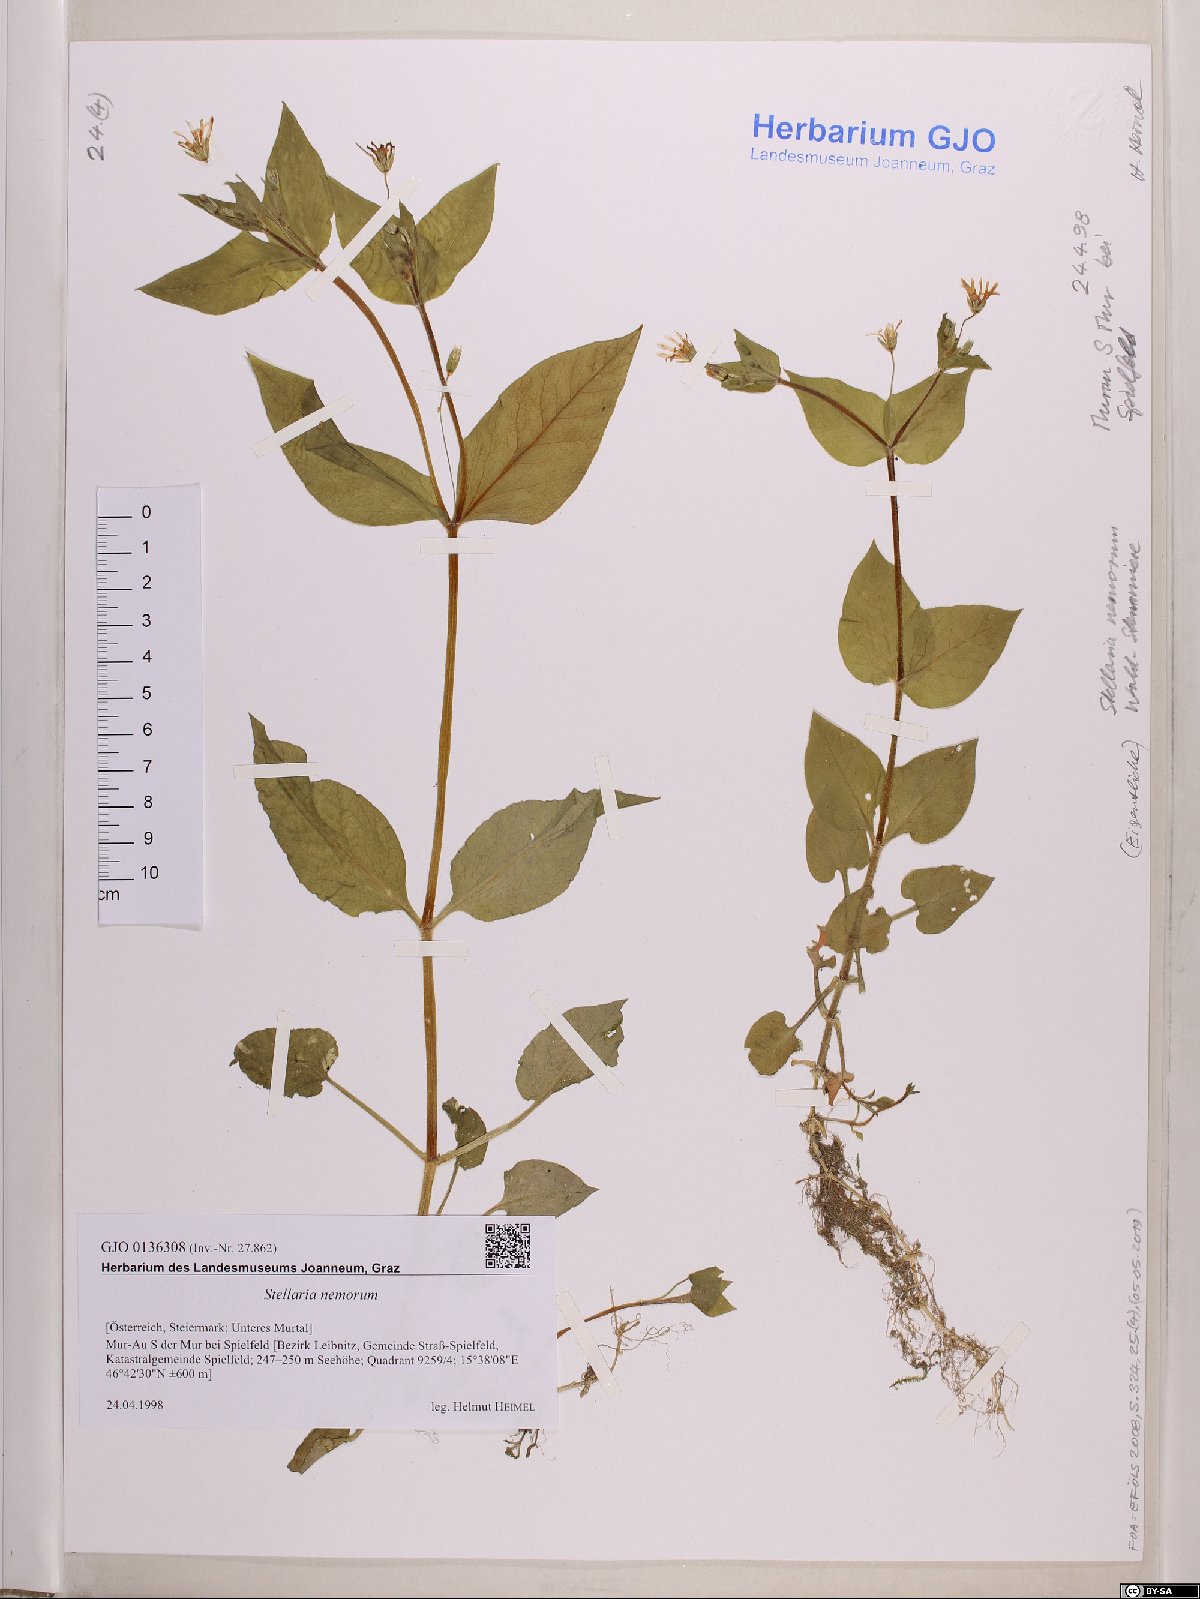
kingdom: Plantae
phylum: Tracheophyta
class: Magnoliopsida
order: Caryophyllales
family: Caryophyllaceae
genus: Stellaria
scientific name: Stellaria nemorum
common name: Wood stitchwort
